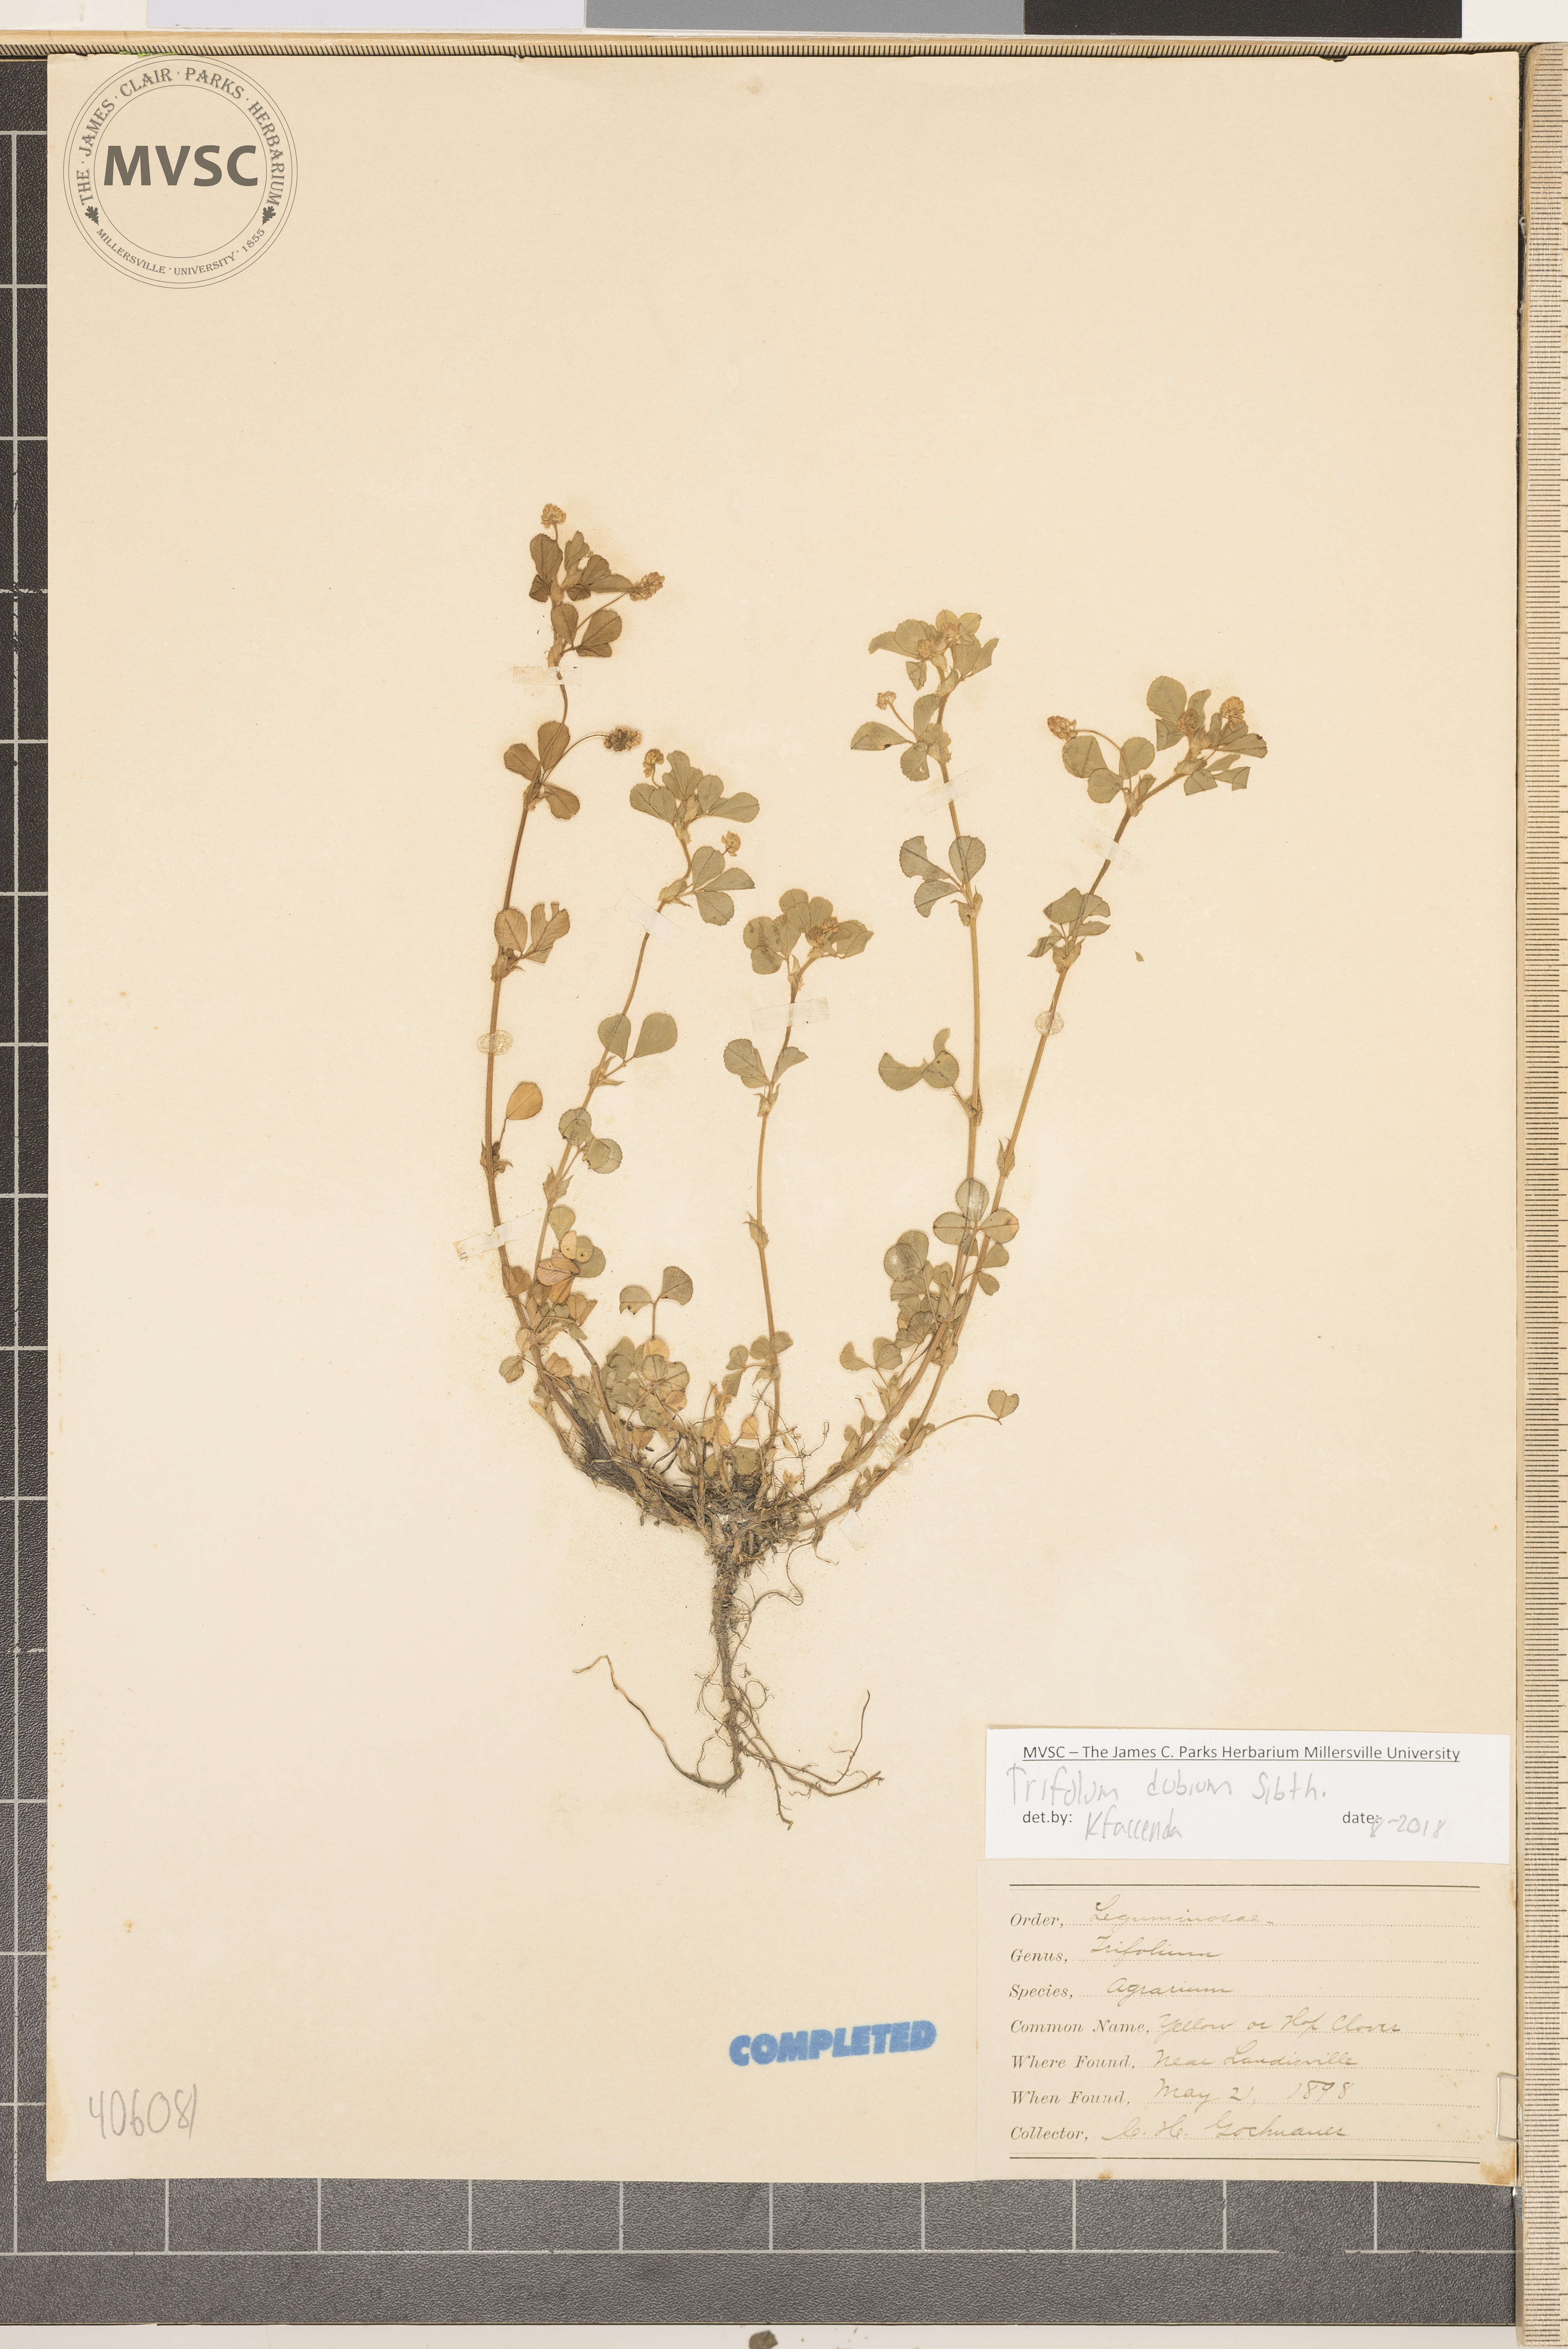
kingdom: Plantae
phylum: Tracheophyta
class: Magnoliopsida
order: Fabales
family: Fabaceae
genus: Trifolium
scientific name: Trifolium dubium
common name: Suckling clover
